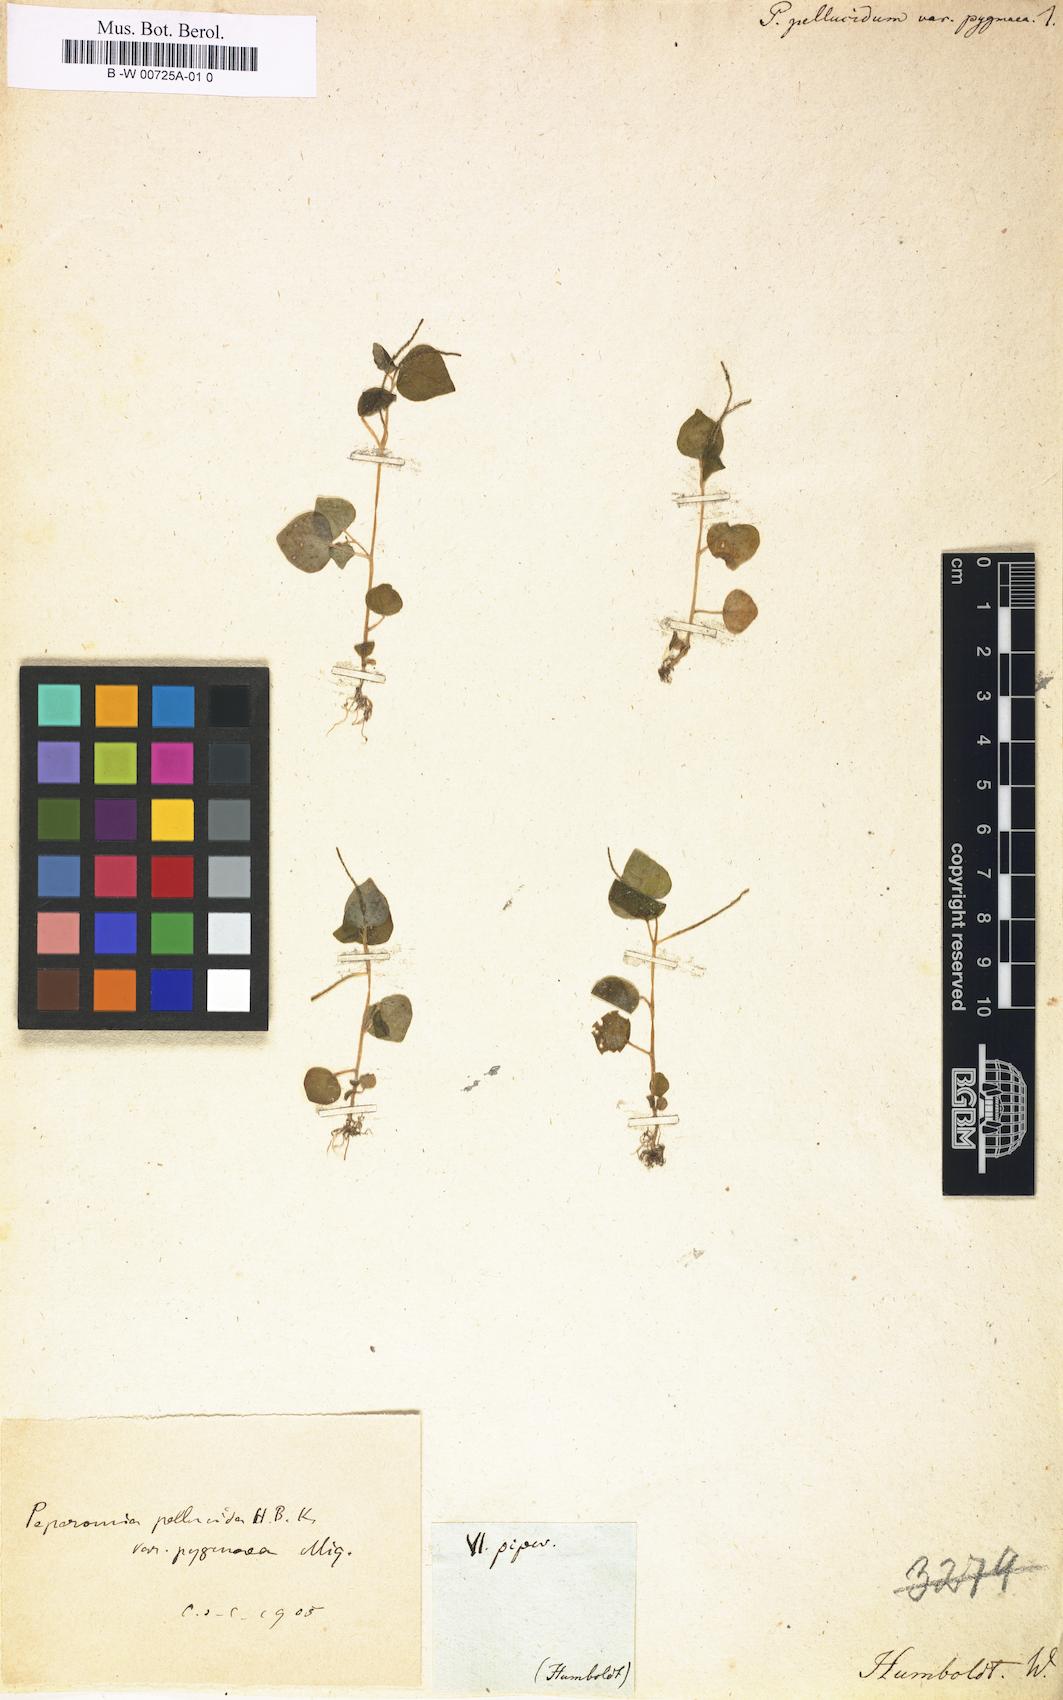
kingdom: Plantae
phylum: Tracheophyta
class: Magnoliopsida
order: Piperales
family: Piperaceae
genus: Peperomia
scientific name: Peperomia pellucida
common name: Man to man
